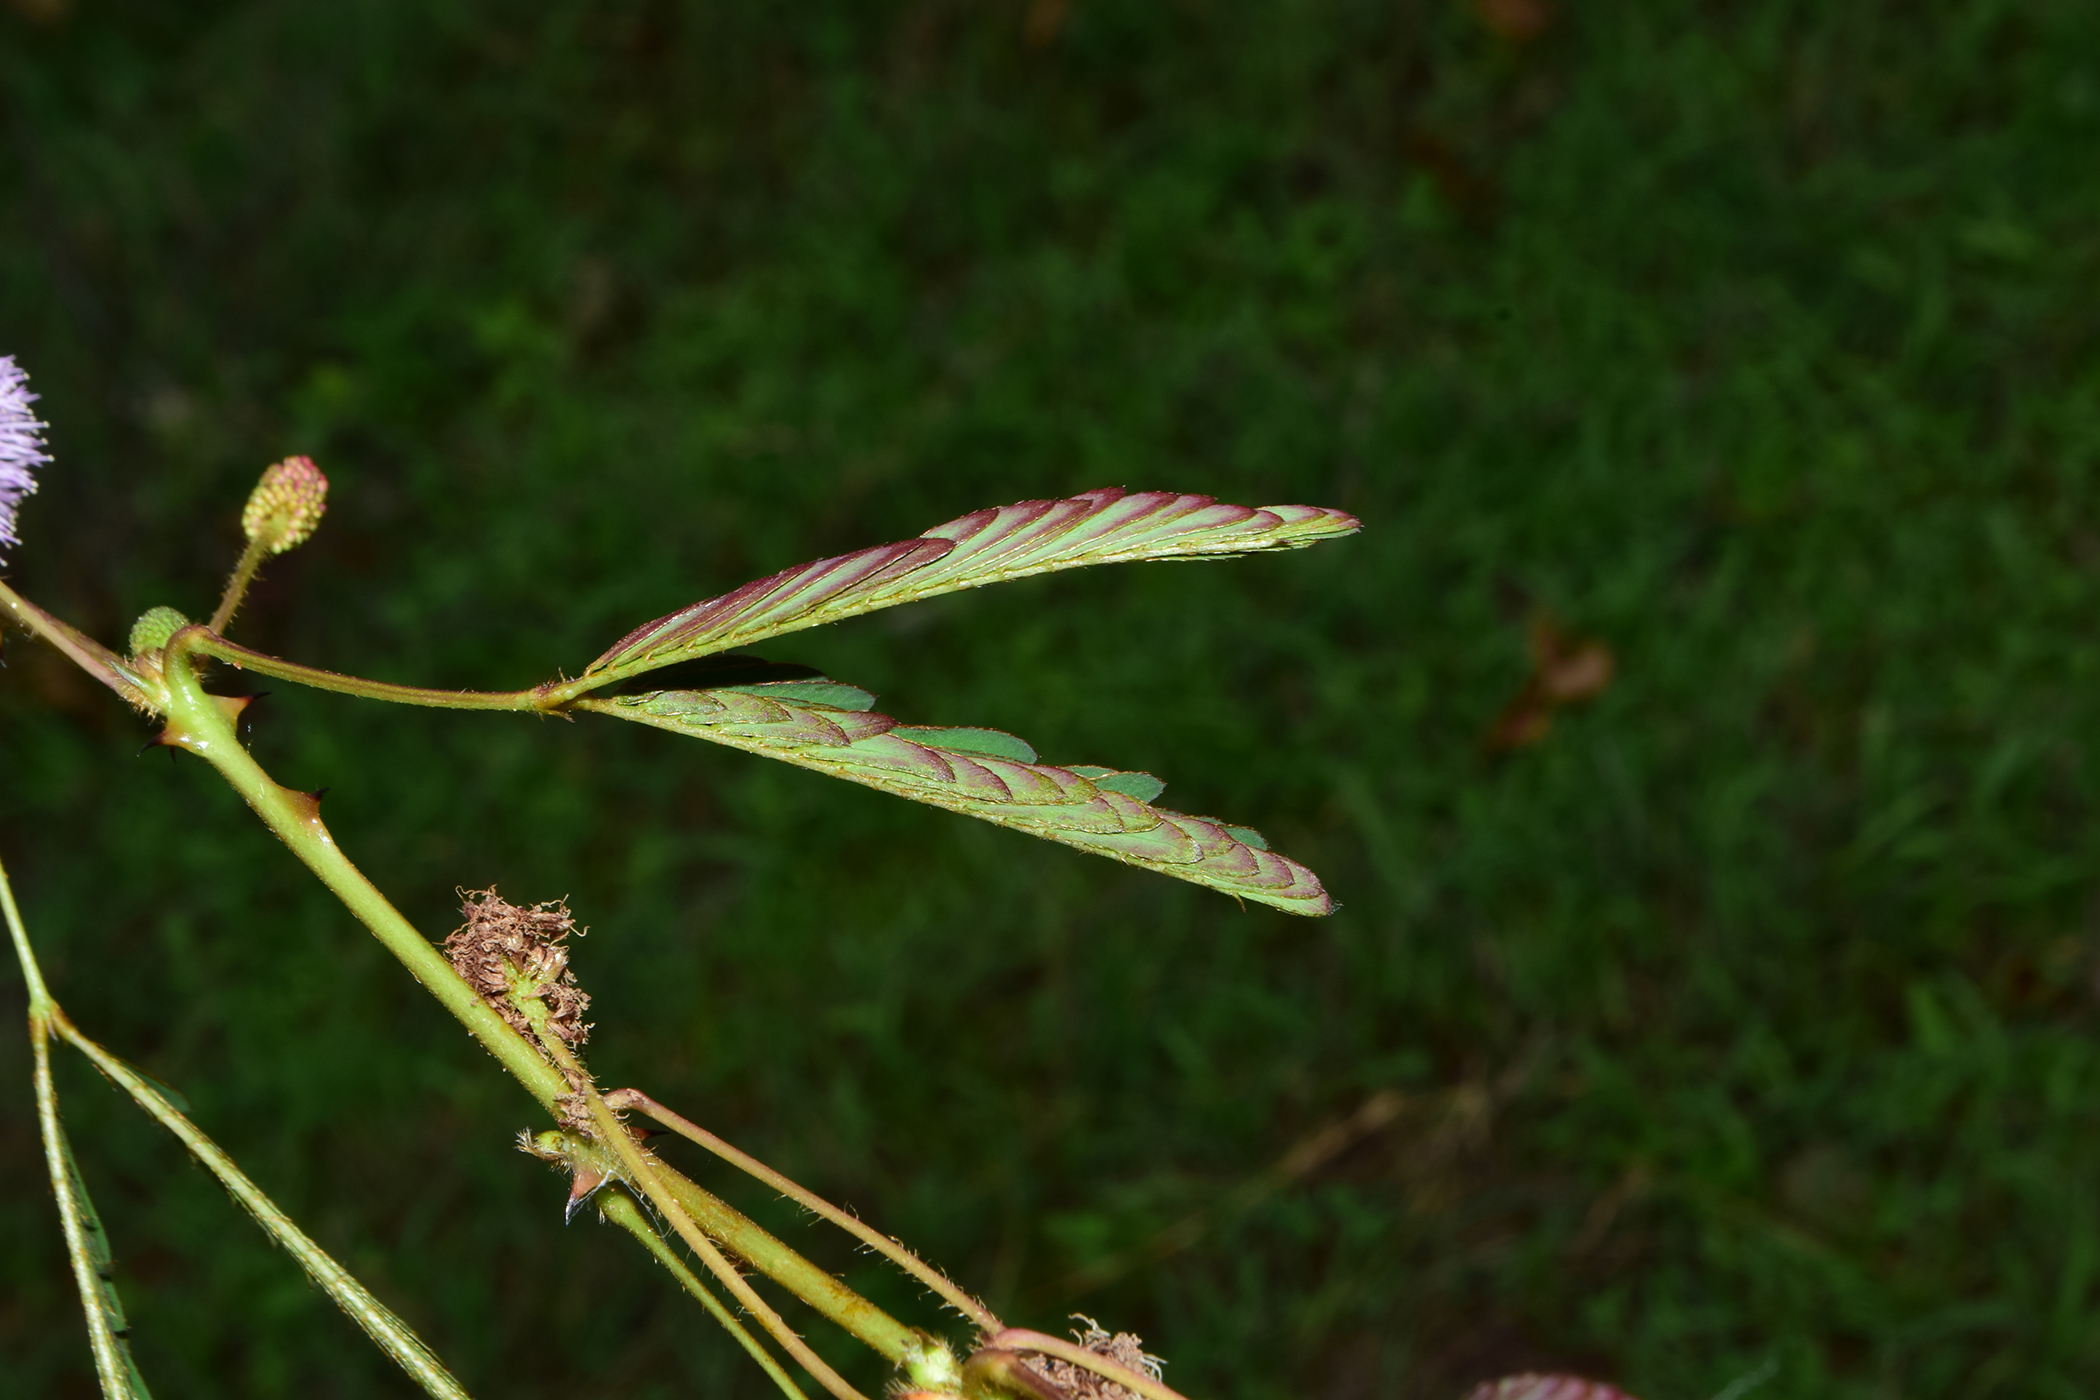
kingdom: Plantae
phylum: Tracheophyta
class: Magnoliopsida
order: Fabales
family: Fabaceae
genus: Mimosa
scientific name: Mimosa pudica
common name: Sensitive plant
